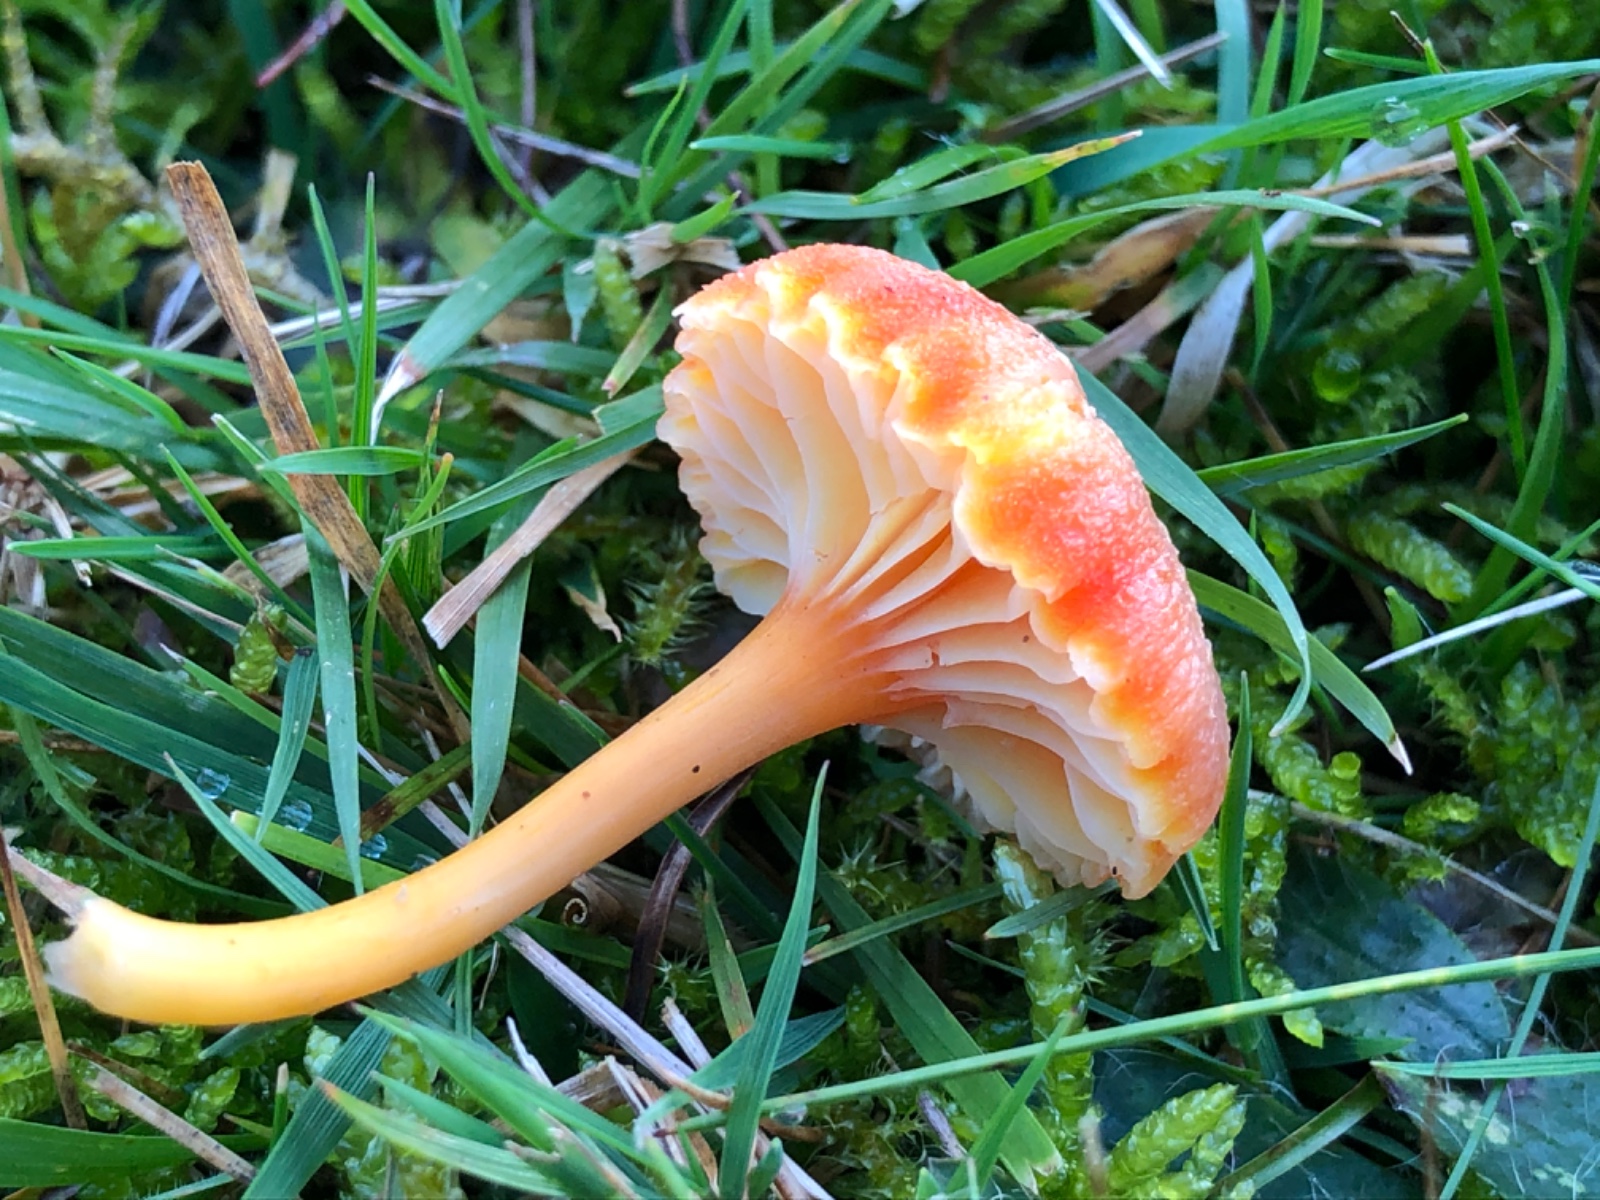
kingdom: Fungi
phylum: Basidiomycota
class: Agaricomycetes
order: Agaricales
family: Hygrophoraceae
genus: Hygrocybe
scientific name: Hygrocybe cantharellus
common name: kantarel-vokshat
